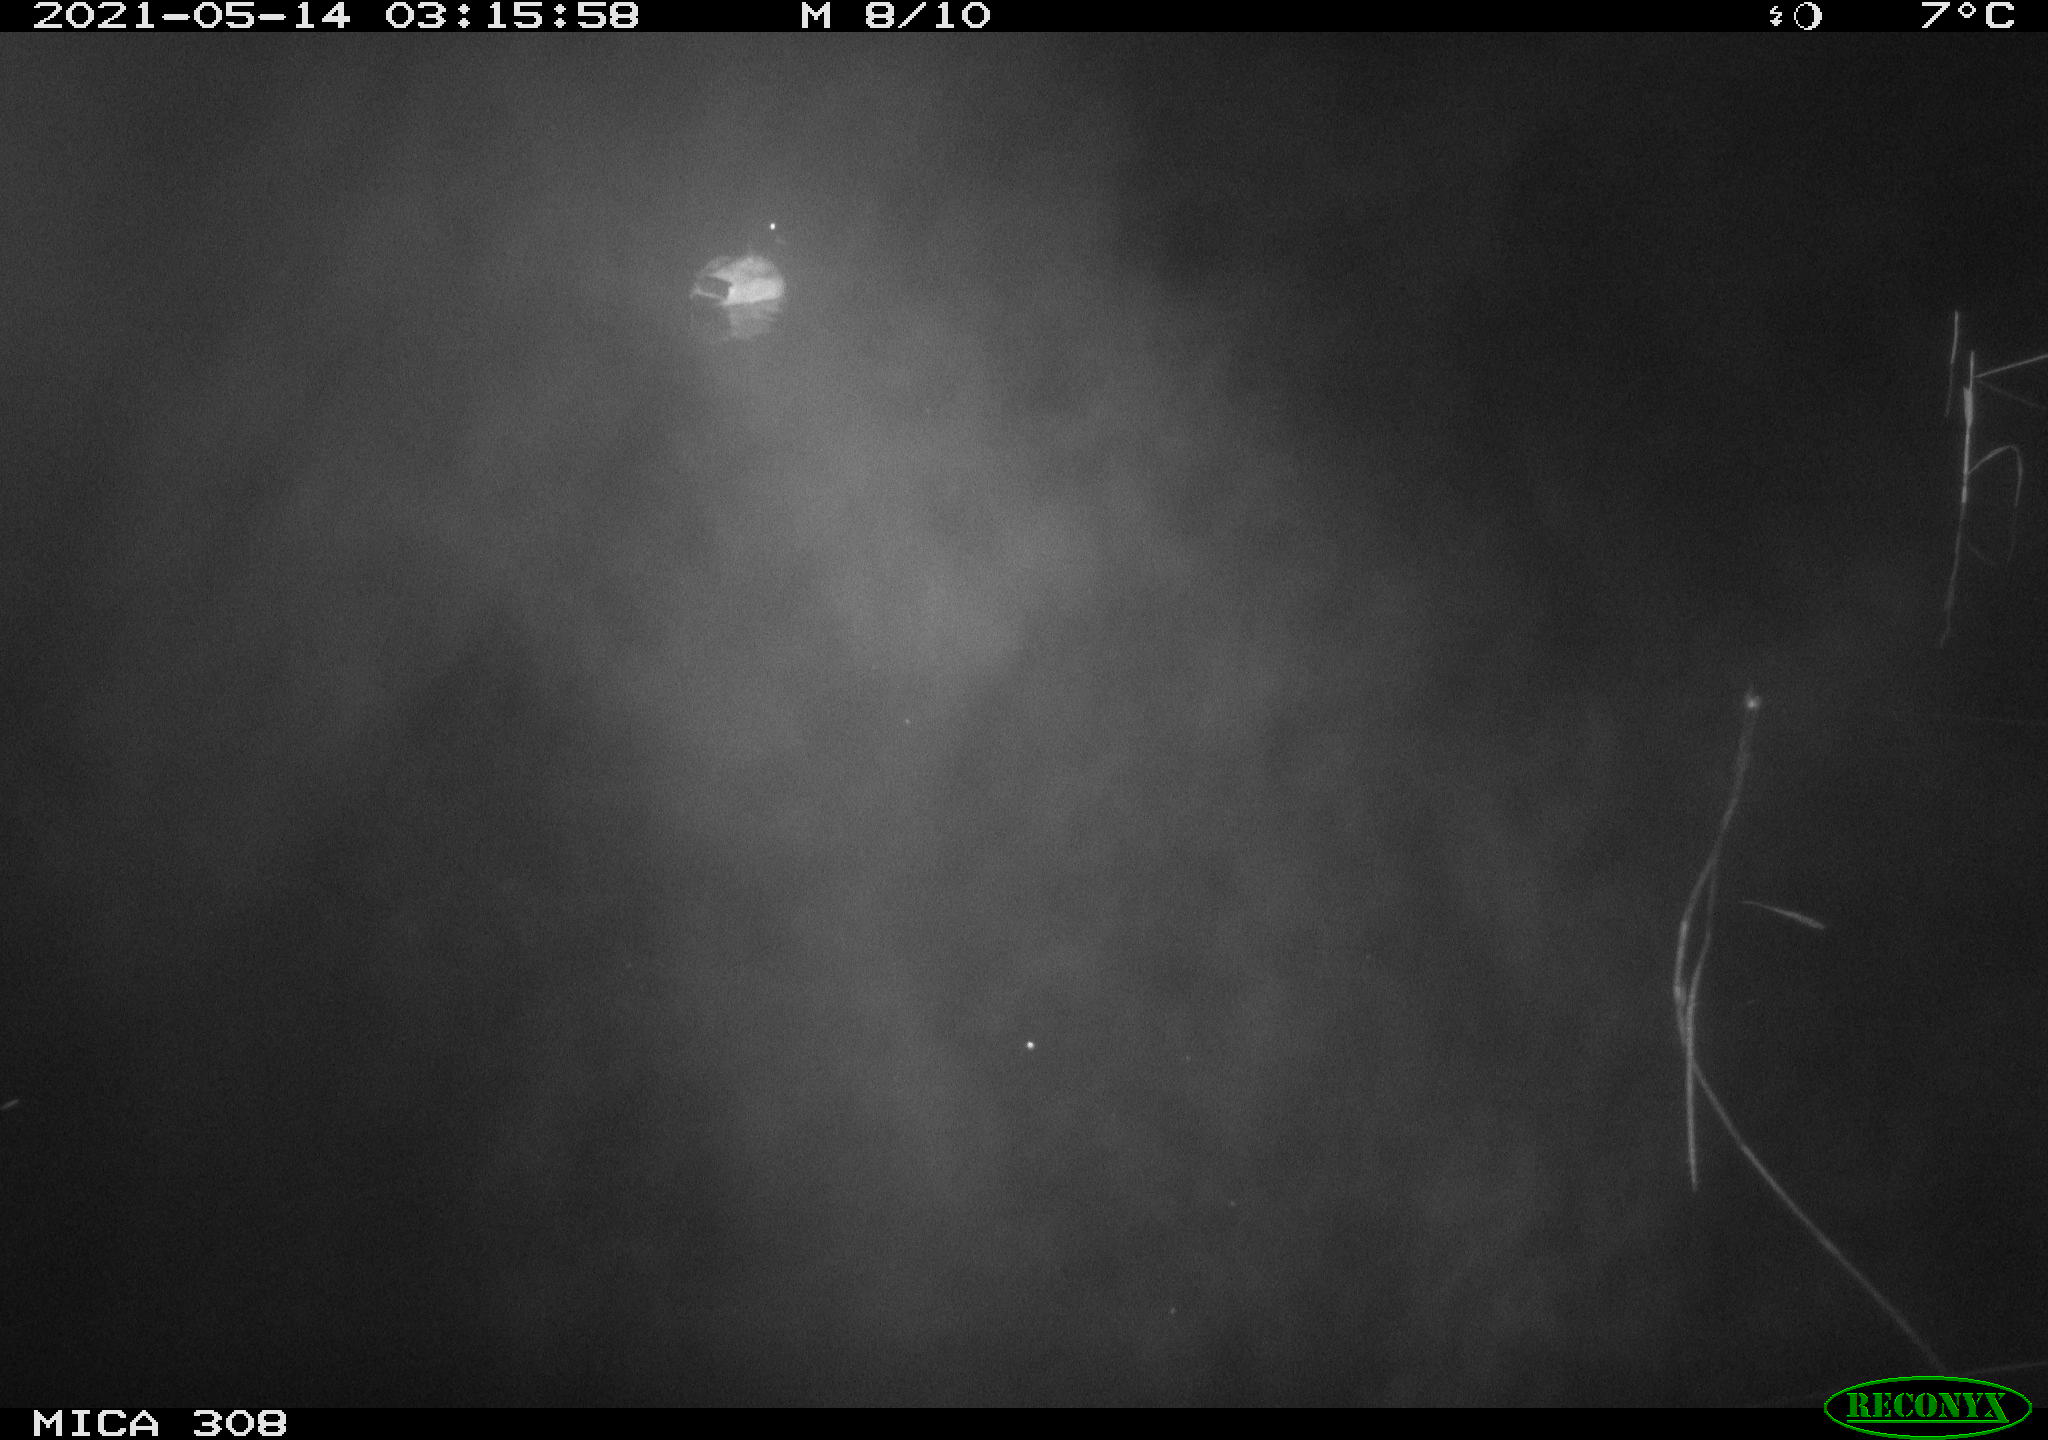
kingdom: Animalia
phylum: Chordata
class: Aves
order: Anseriformes
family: Anatidae
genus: Anas
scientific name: Anas platyrhynchos
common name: Mallard
